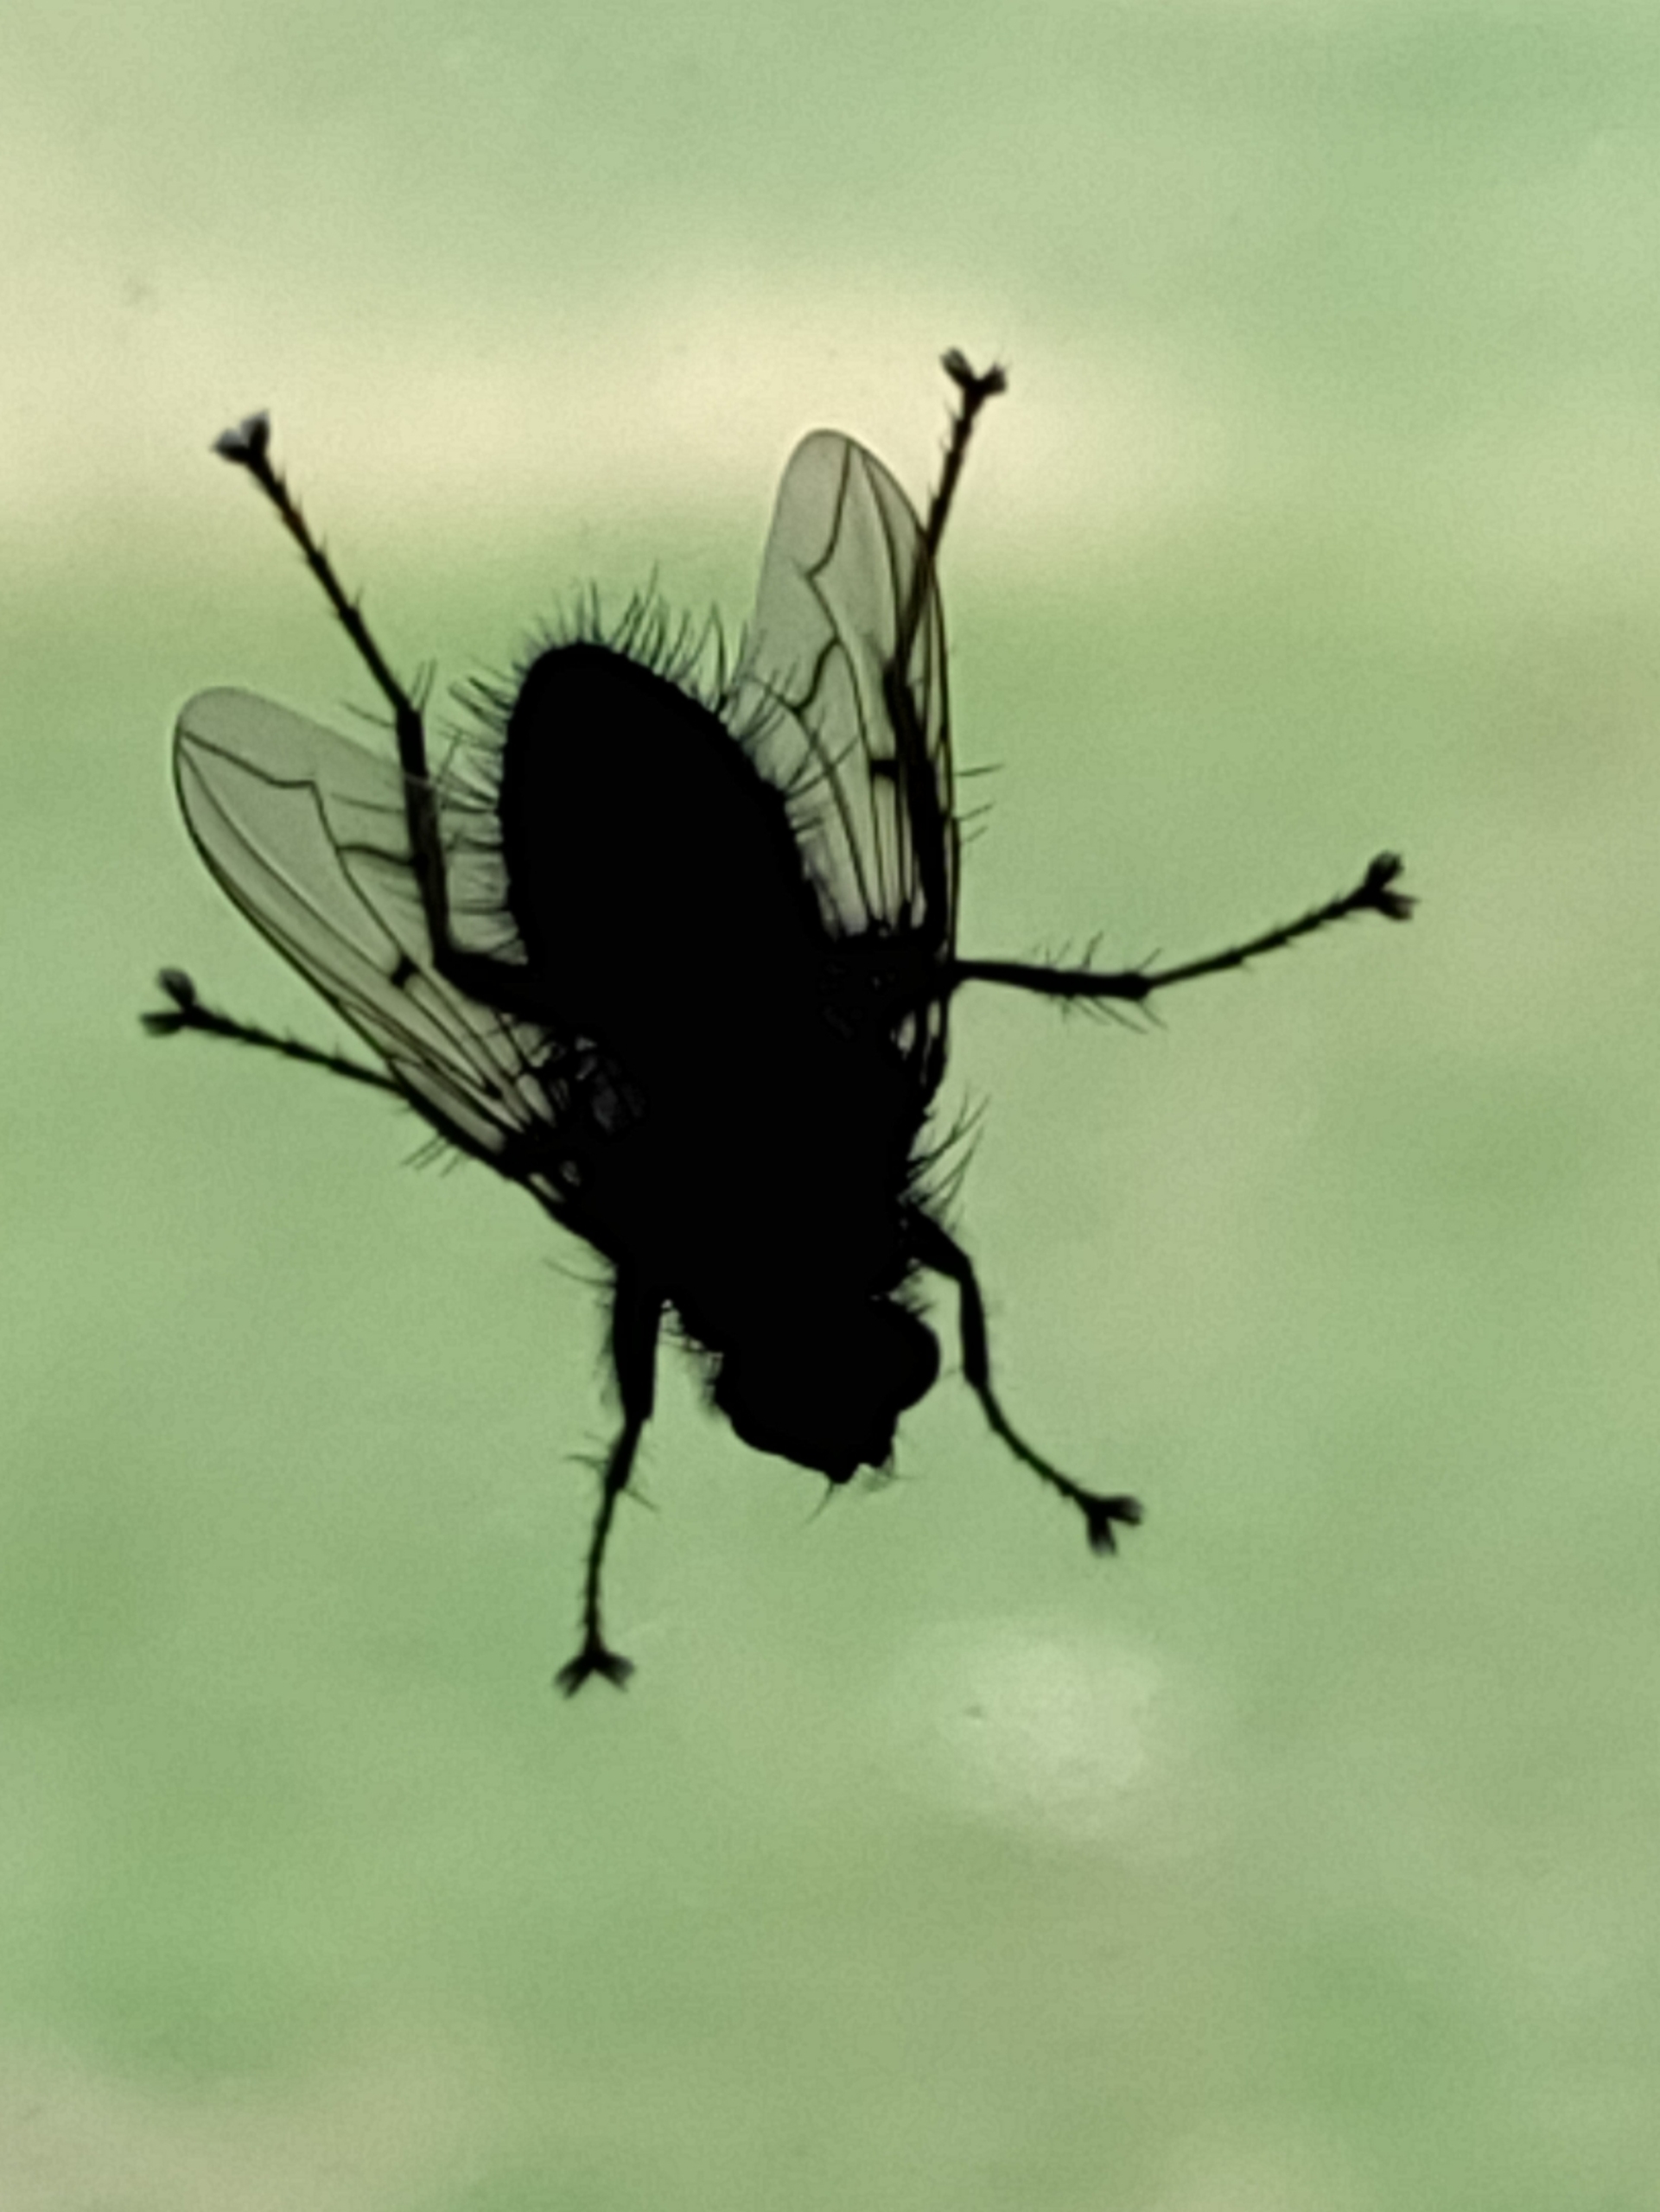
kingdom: Animalia
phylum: Arthropoda
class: Insecta
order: Diptera
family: Sarcophagidae
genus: Sarcophaga
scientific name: Sarcophaga
